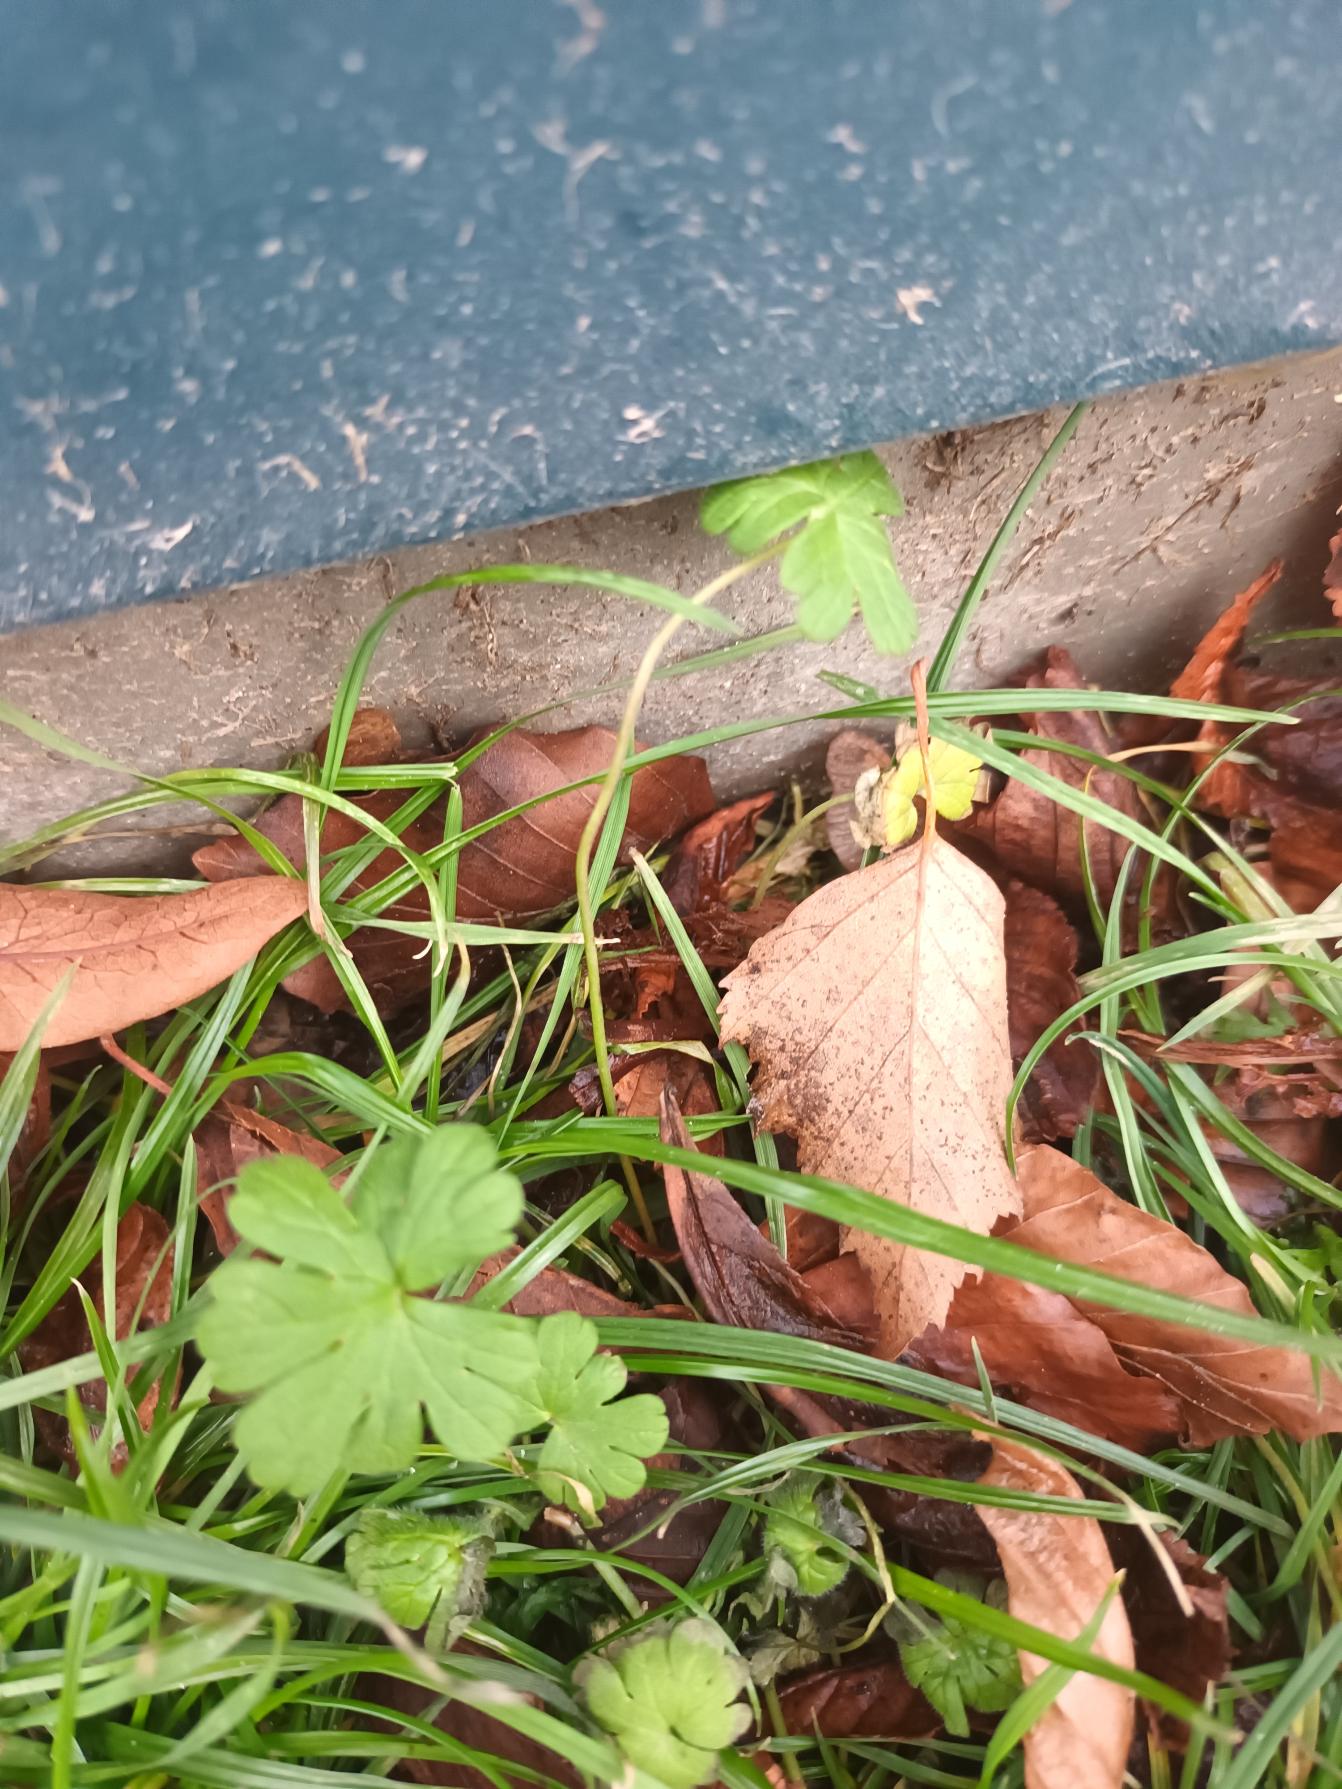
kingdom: Plantae
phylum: Tracheophyta
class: Magnoliopsida
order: Geraniales
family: Geraniaceae
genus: Geranium
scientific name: Geranium pusillum
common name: Liden storkenæb
